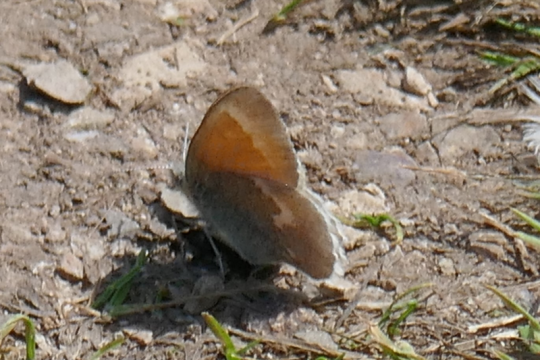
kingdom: Animalia
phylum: Arthropoda
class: Insecta
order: Lepidoptera
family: Nymphalidae
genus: Coenonympha
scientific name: Coenonympha california
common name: California Ringlet
